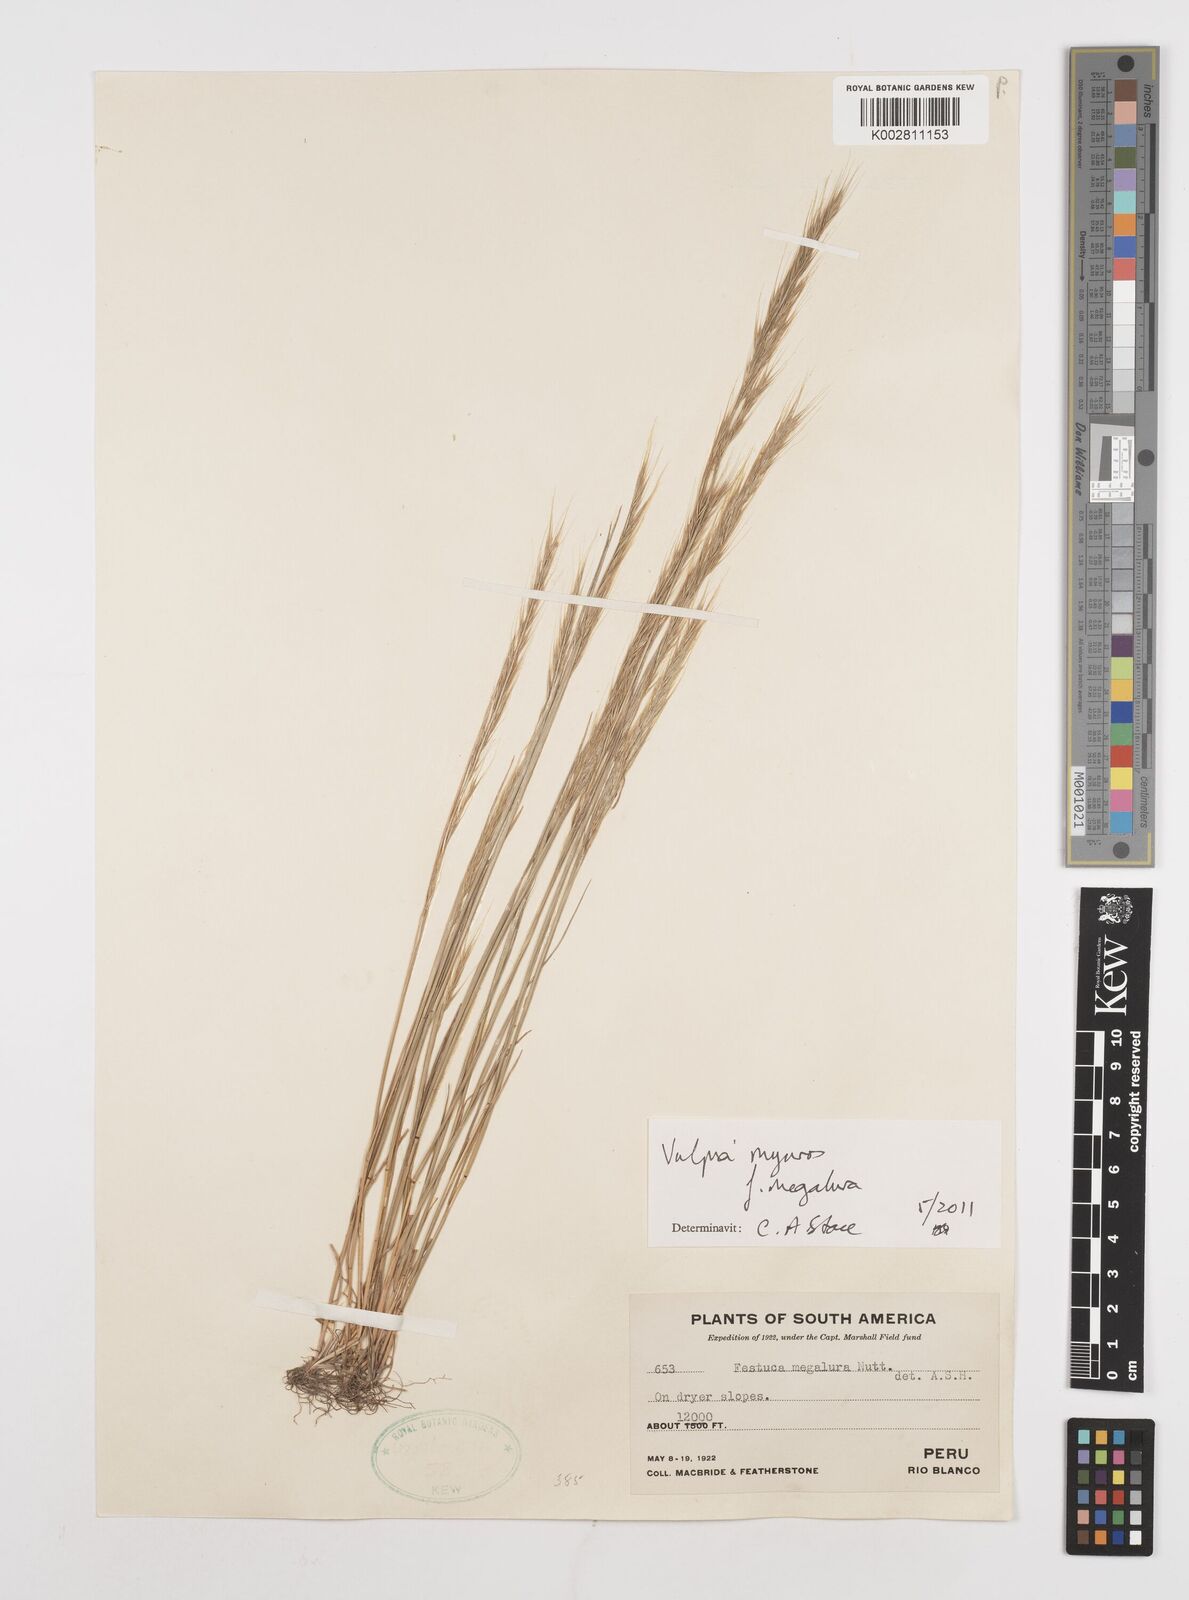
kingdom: Plantae
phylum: Tracheophyta
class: Liliopsida
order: Poales
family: Poaceae
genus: Festuca
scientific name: Festuca myuros
